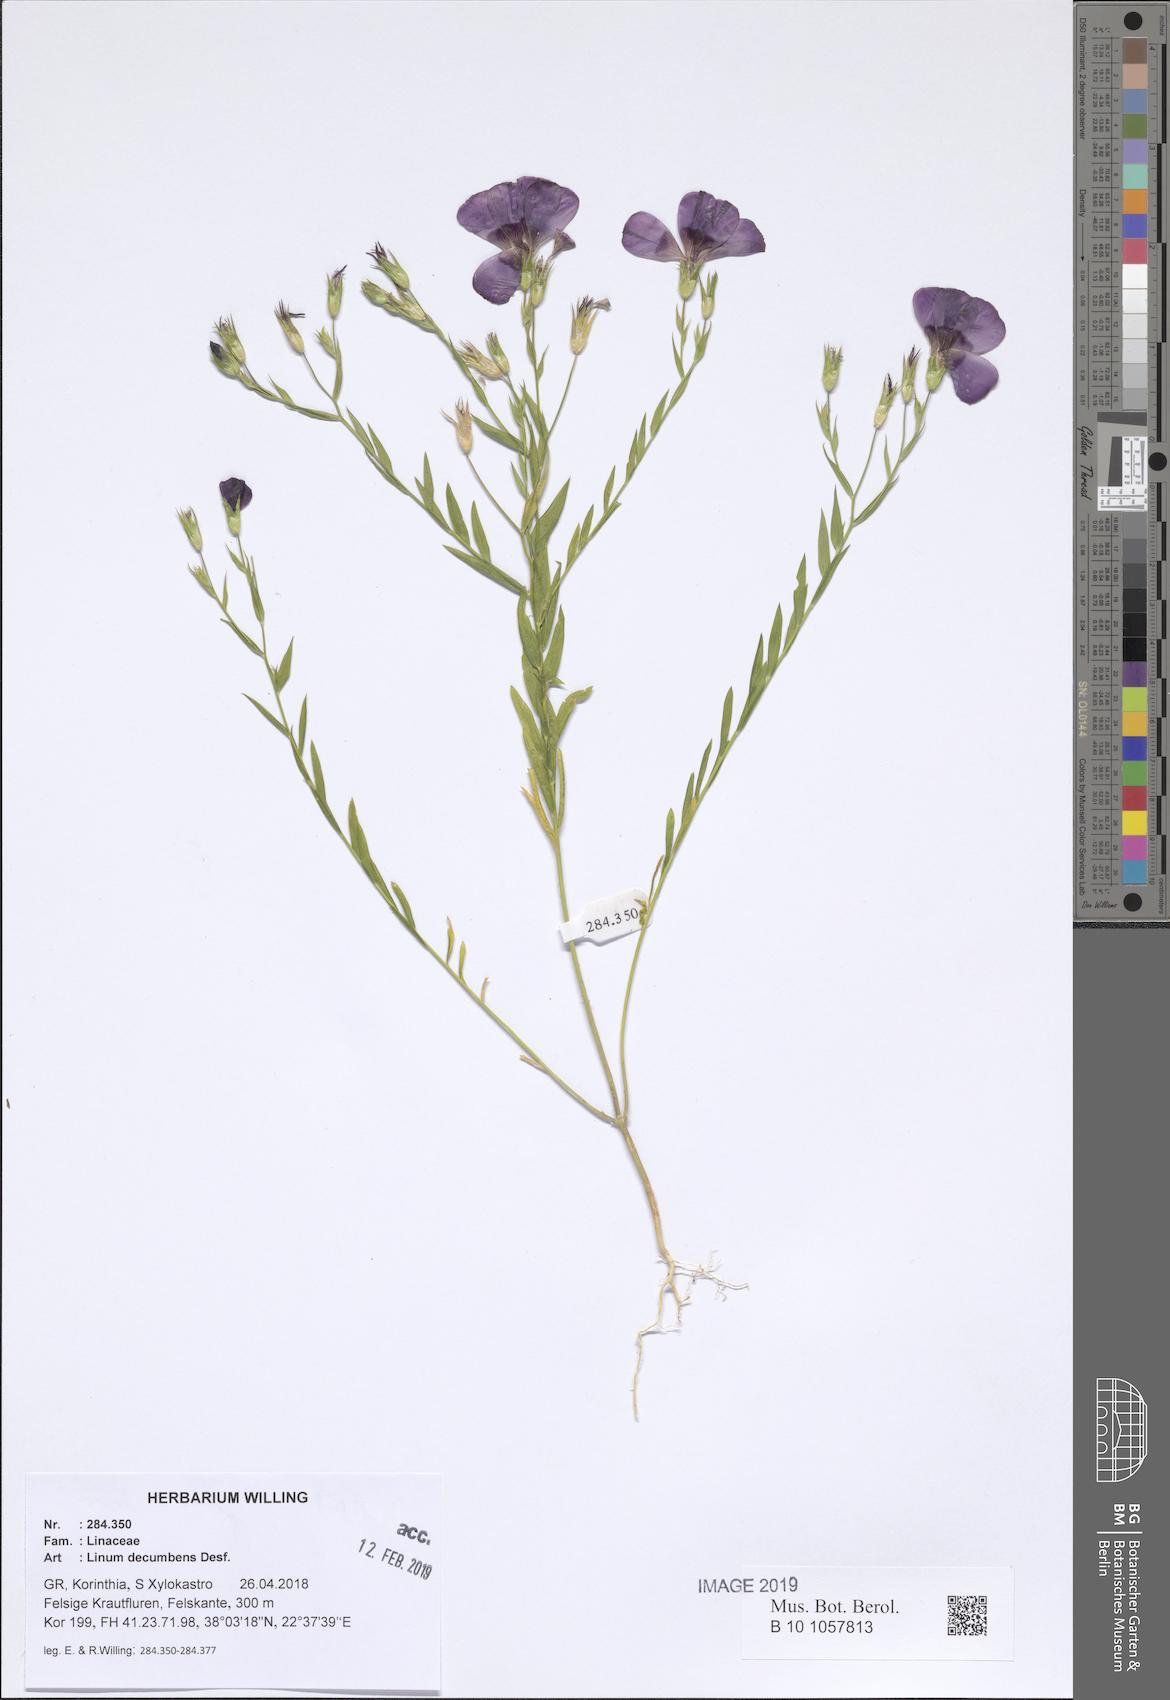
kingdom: Plantae
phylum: Tracheophyta
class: Magnoliopsida
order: Malpighiales
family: Linaceae
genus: Linum
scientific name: Linum decumbens
